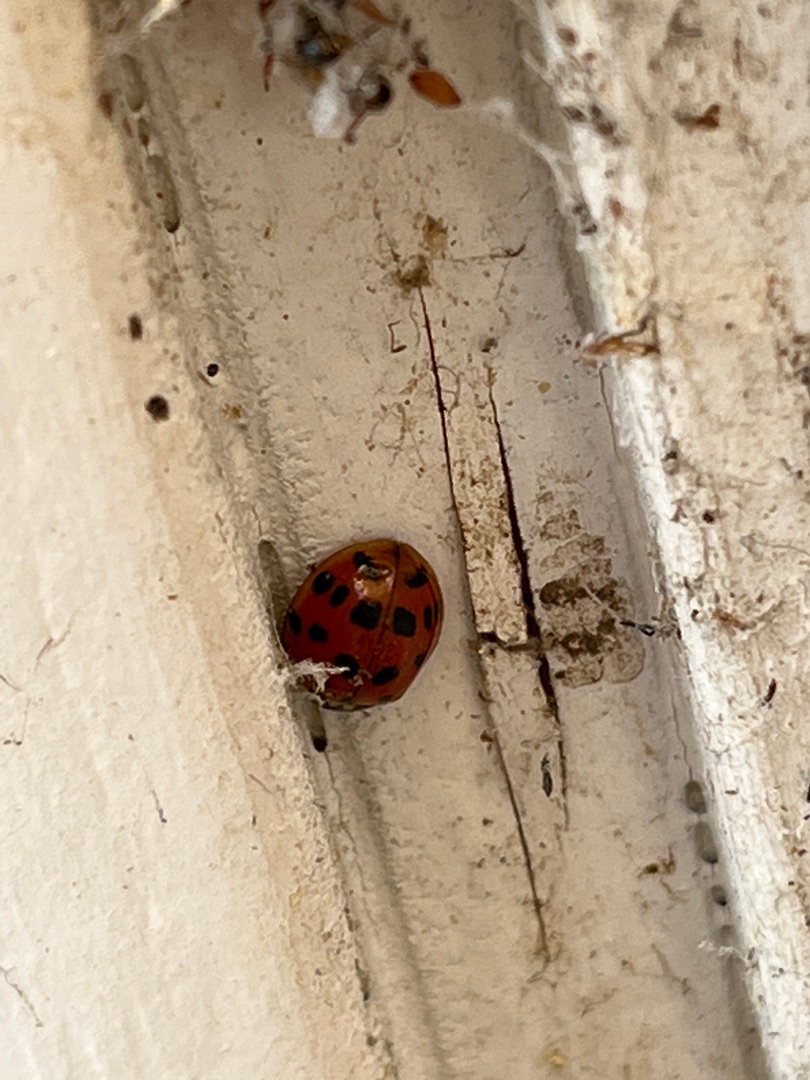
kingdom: Animalia
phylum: Arthropoda
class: Insecta
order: Coleoptera
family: Coccinellidae
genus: Harmonia
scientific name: Harmonia axyridis
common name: Harlekinmariehøne
